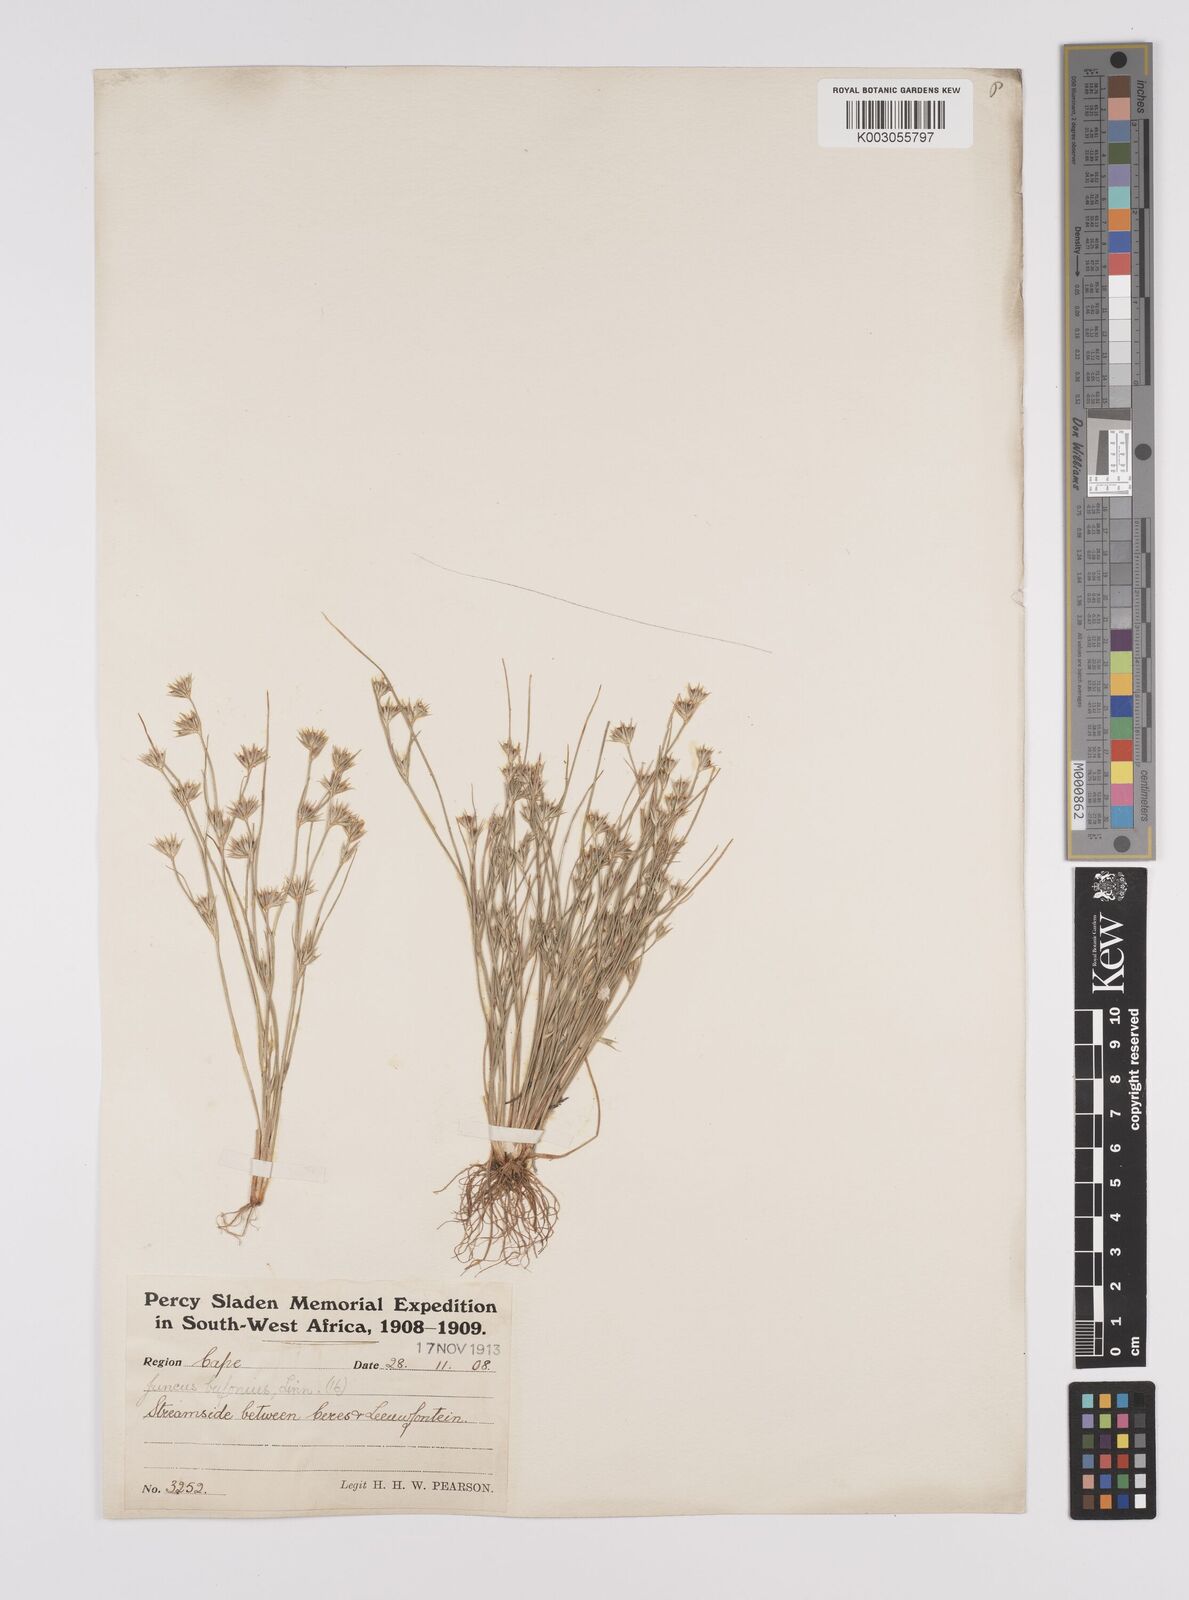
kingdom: Plantae
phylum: Tracheophyta
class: Liliopsida
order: Poales
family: Juncaceae
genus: Juncus
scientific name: Juncus bufonius
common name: Toad rush
